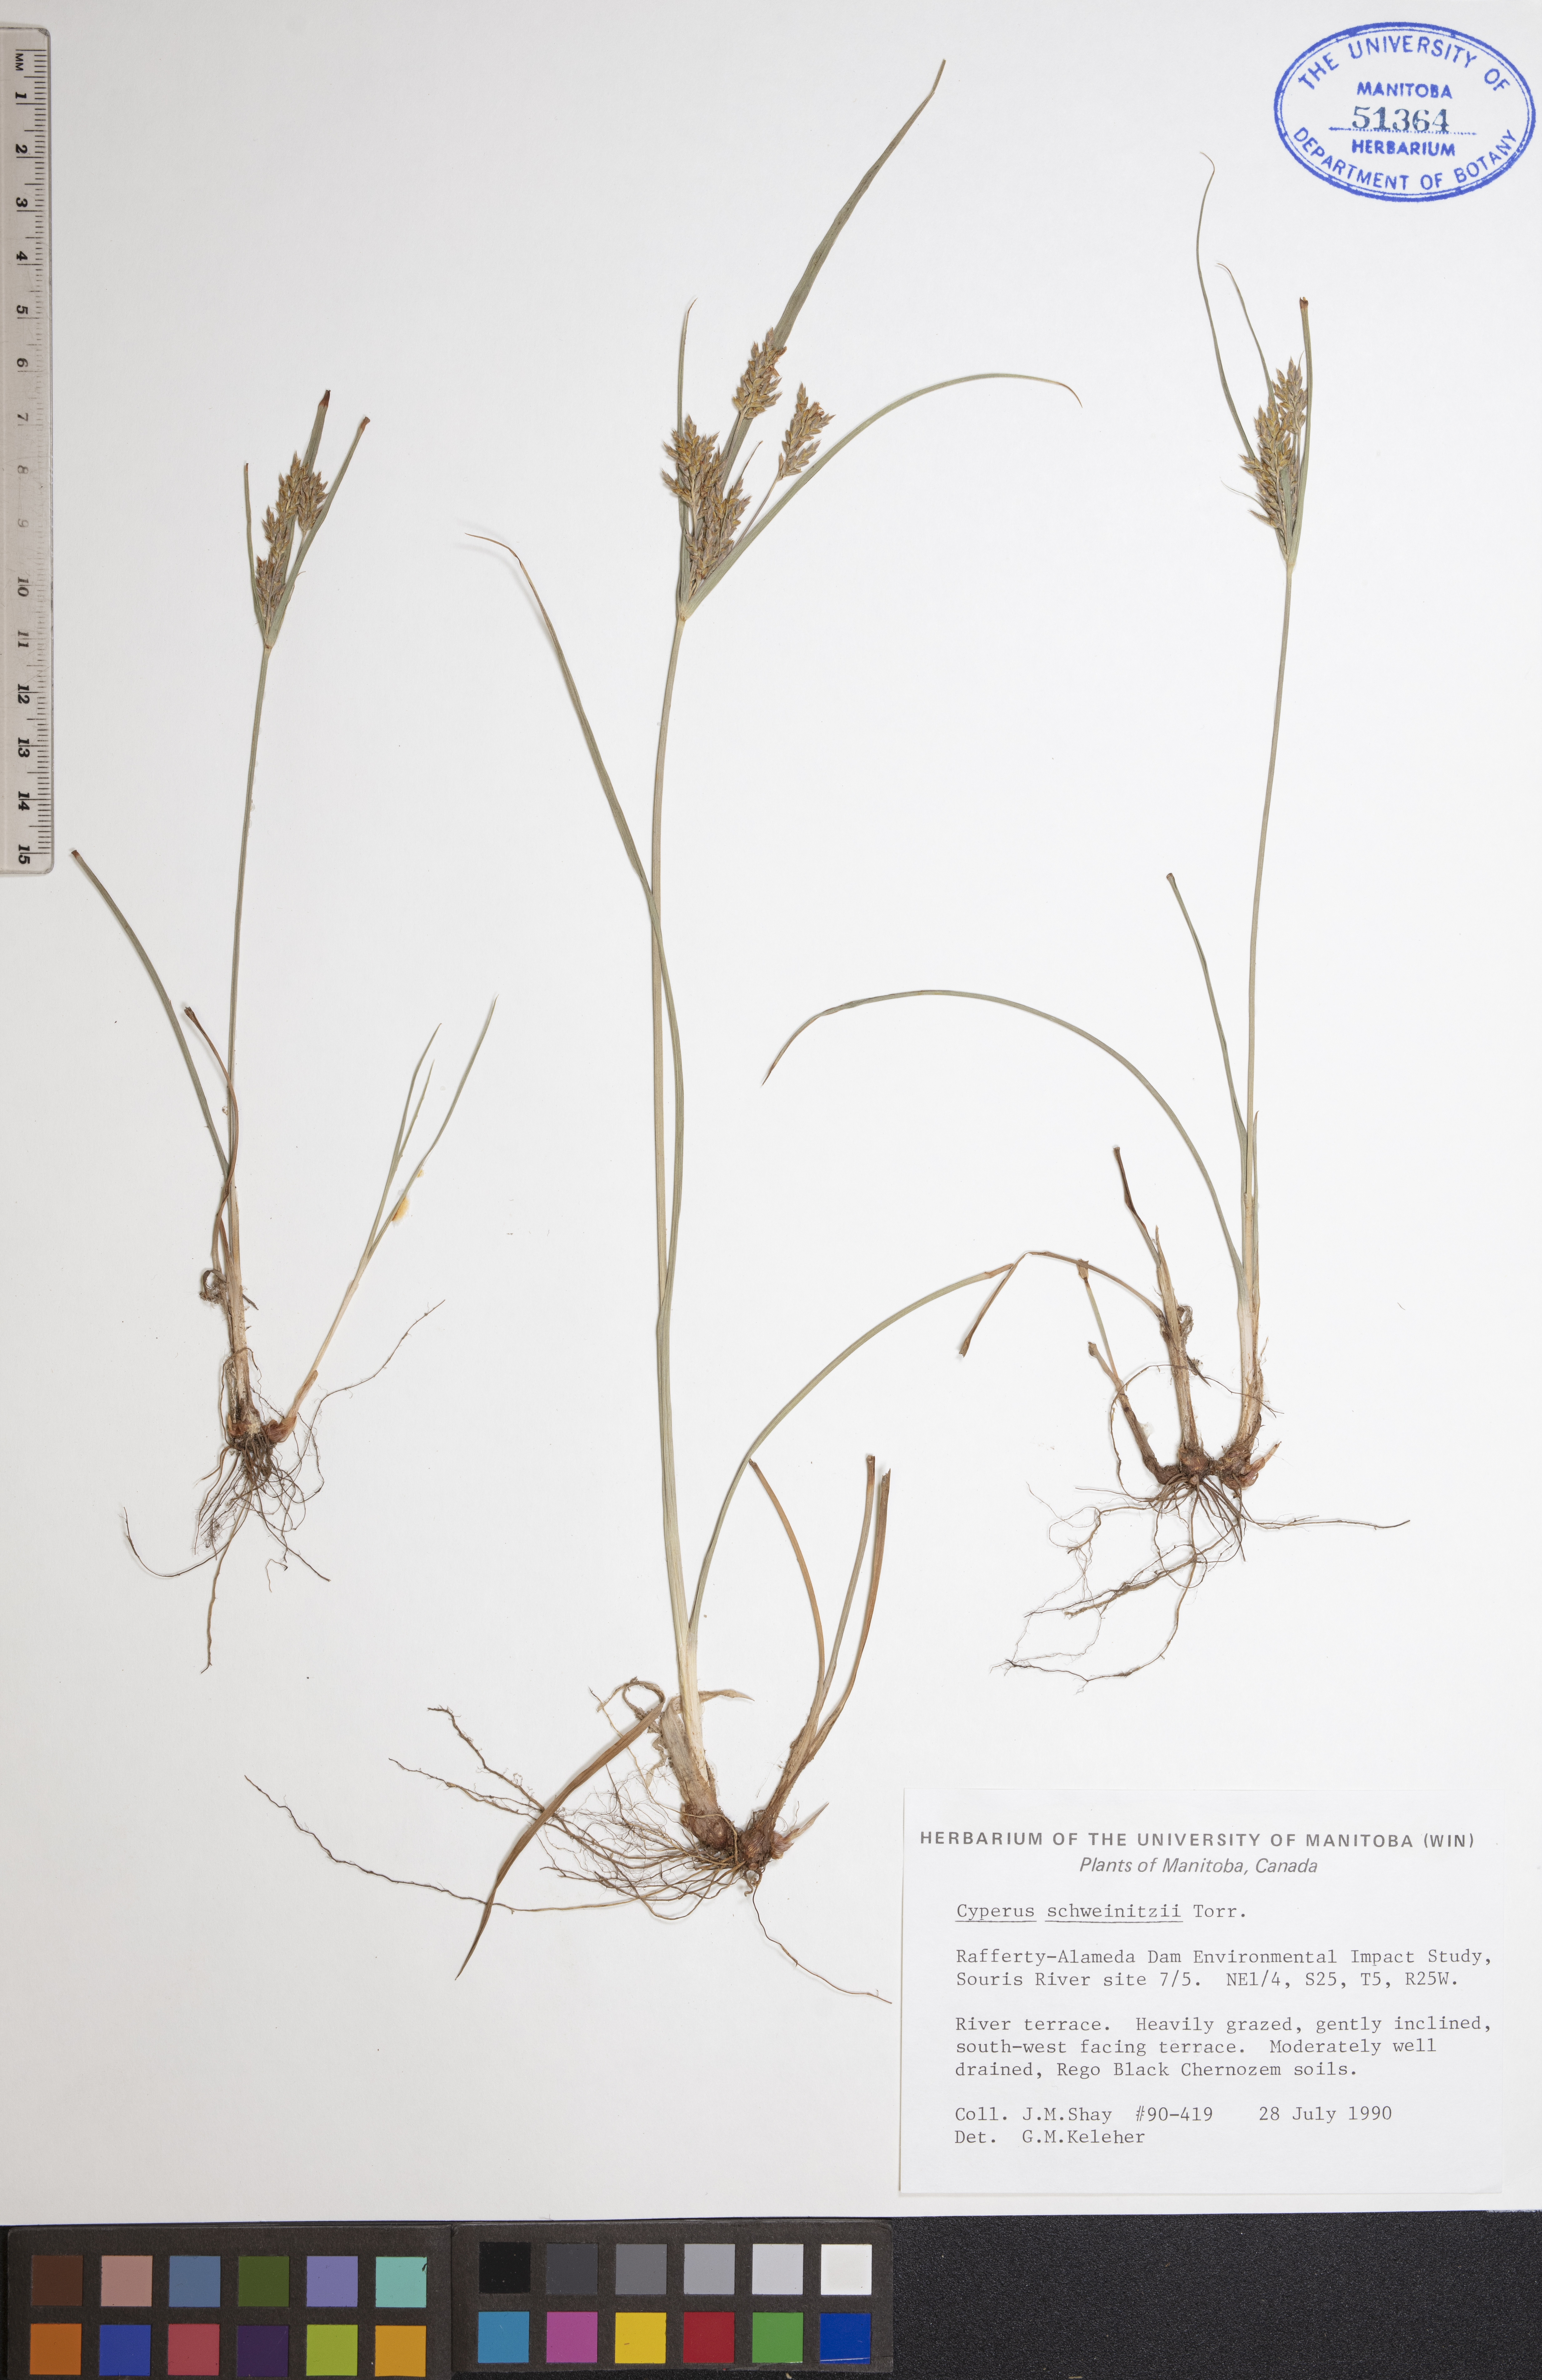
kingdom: Plantae
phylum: Tracheophyta
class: Liliopsida
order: Poales
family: Cyperaceae
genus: Cyperus
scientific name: Cyperus schweinitzii
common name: Schweinitz's cyperus
